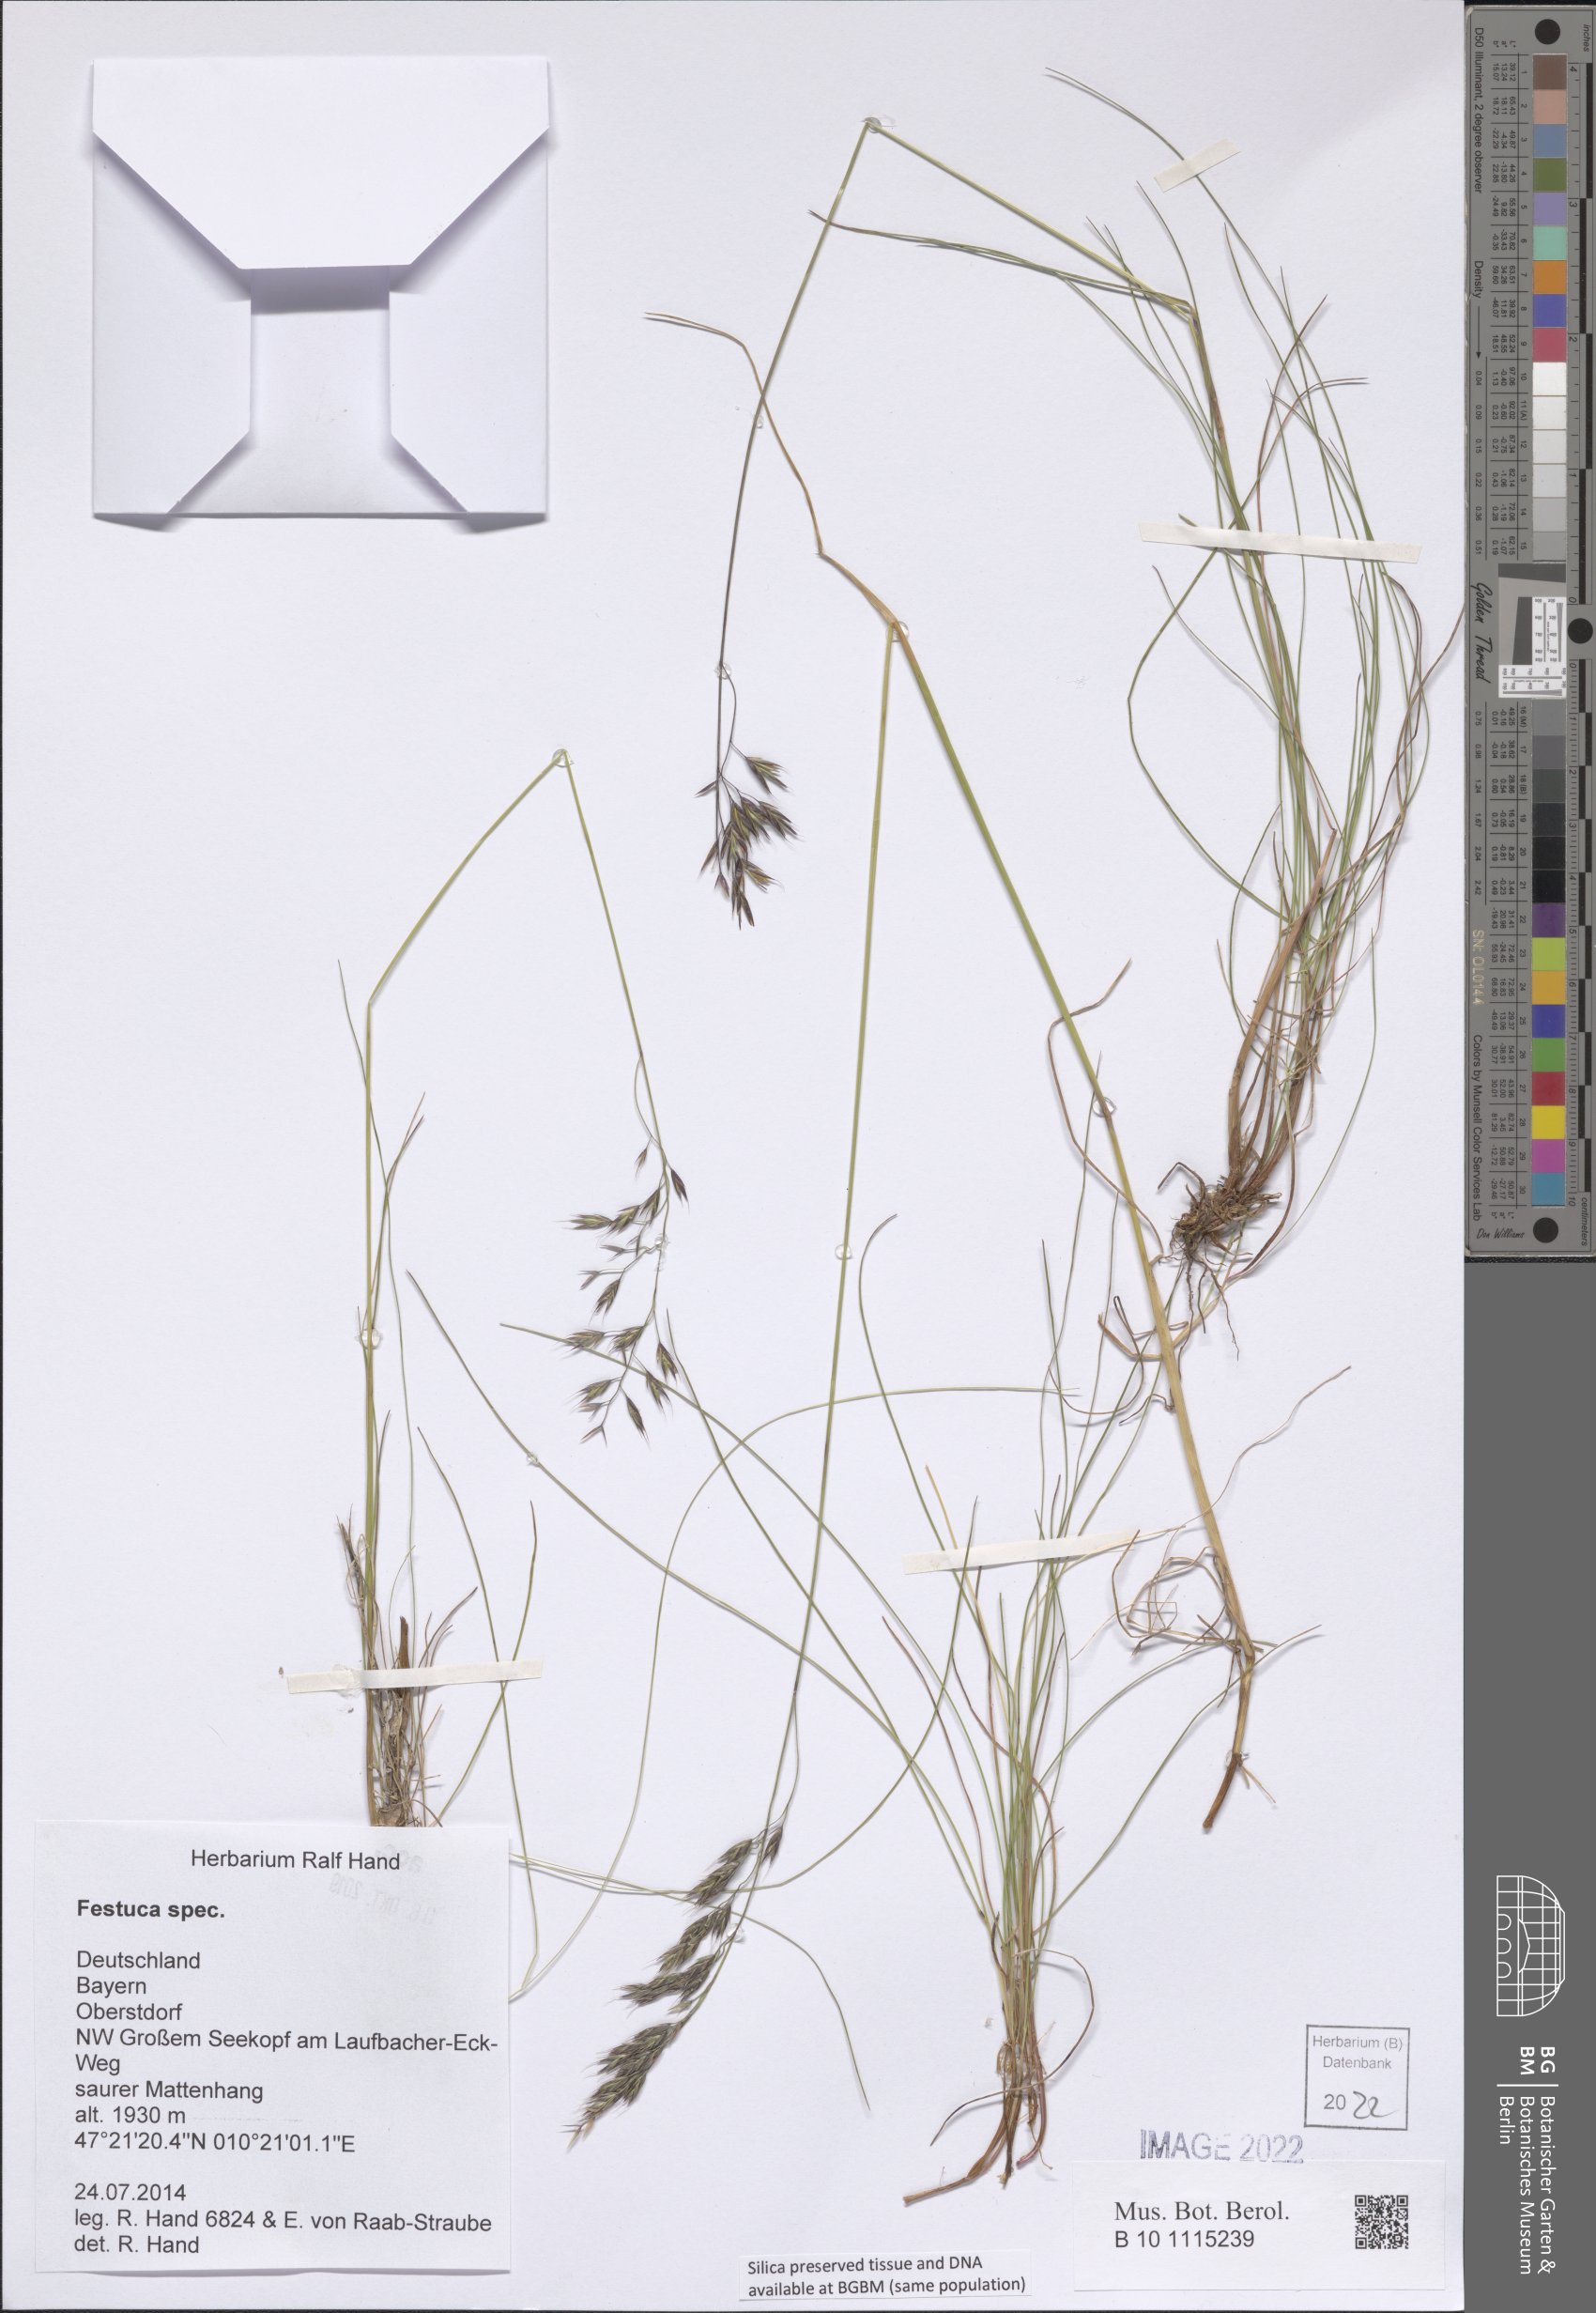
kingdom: Plantae
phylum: Tracheophyta
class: Liliopsida
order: Poales
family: Poaceae
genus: Festuca
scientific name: Festuca
